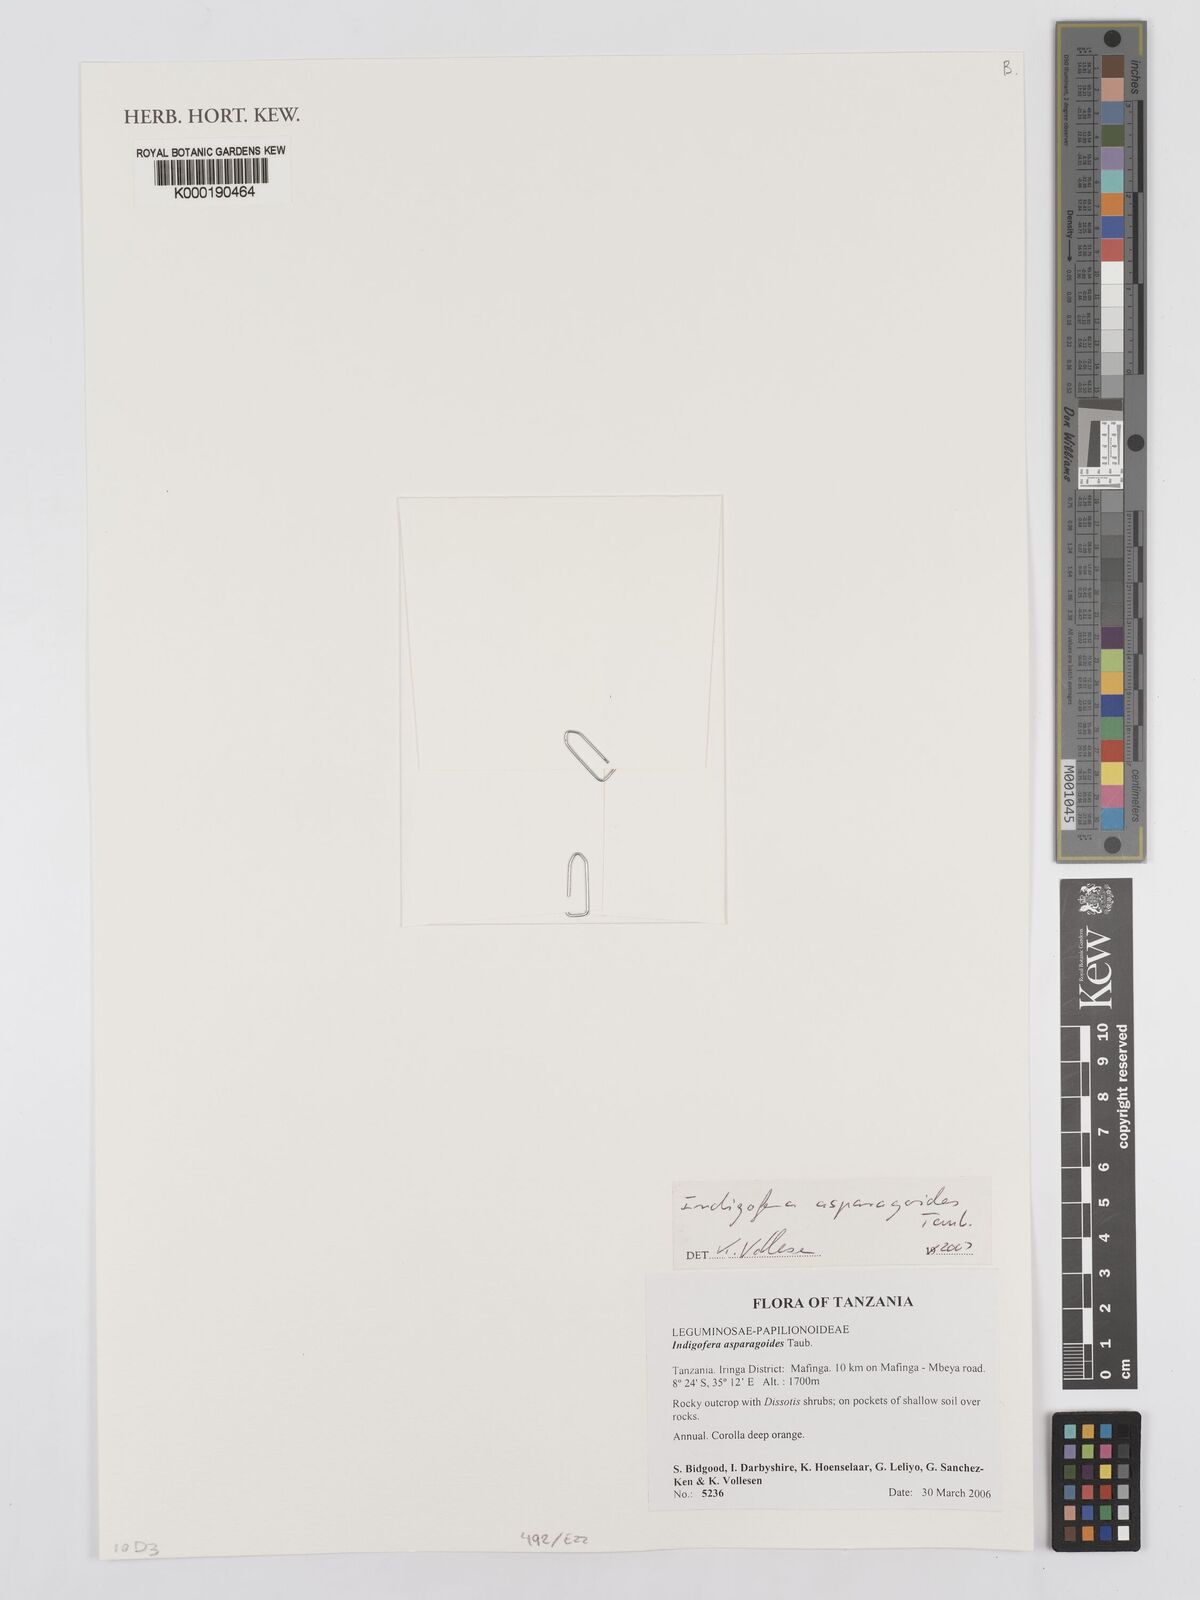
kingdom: Plantae
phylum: Tracheophyta
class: Magnoliopsida
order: Fabales
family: Fabaceae
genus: Microcharis
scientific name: Microcharis asparagoides
